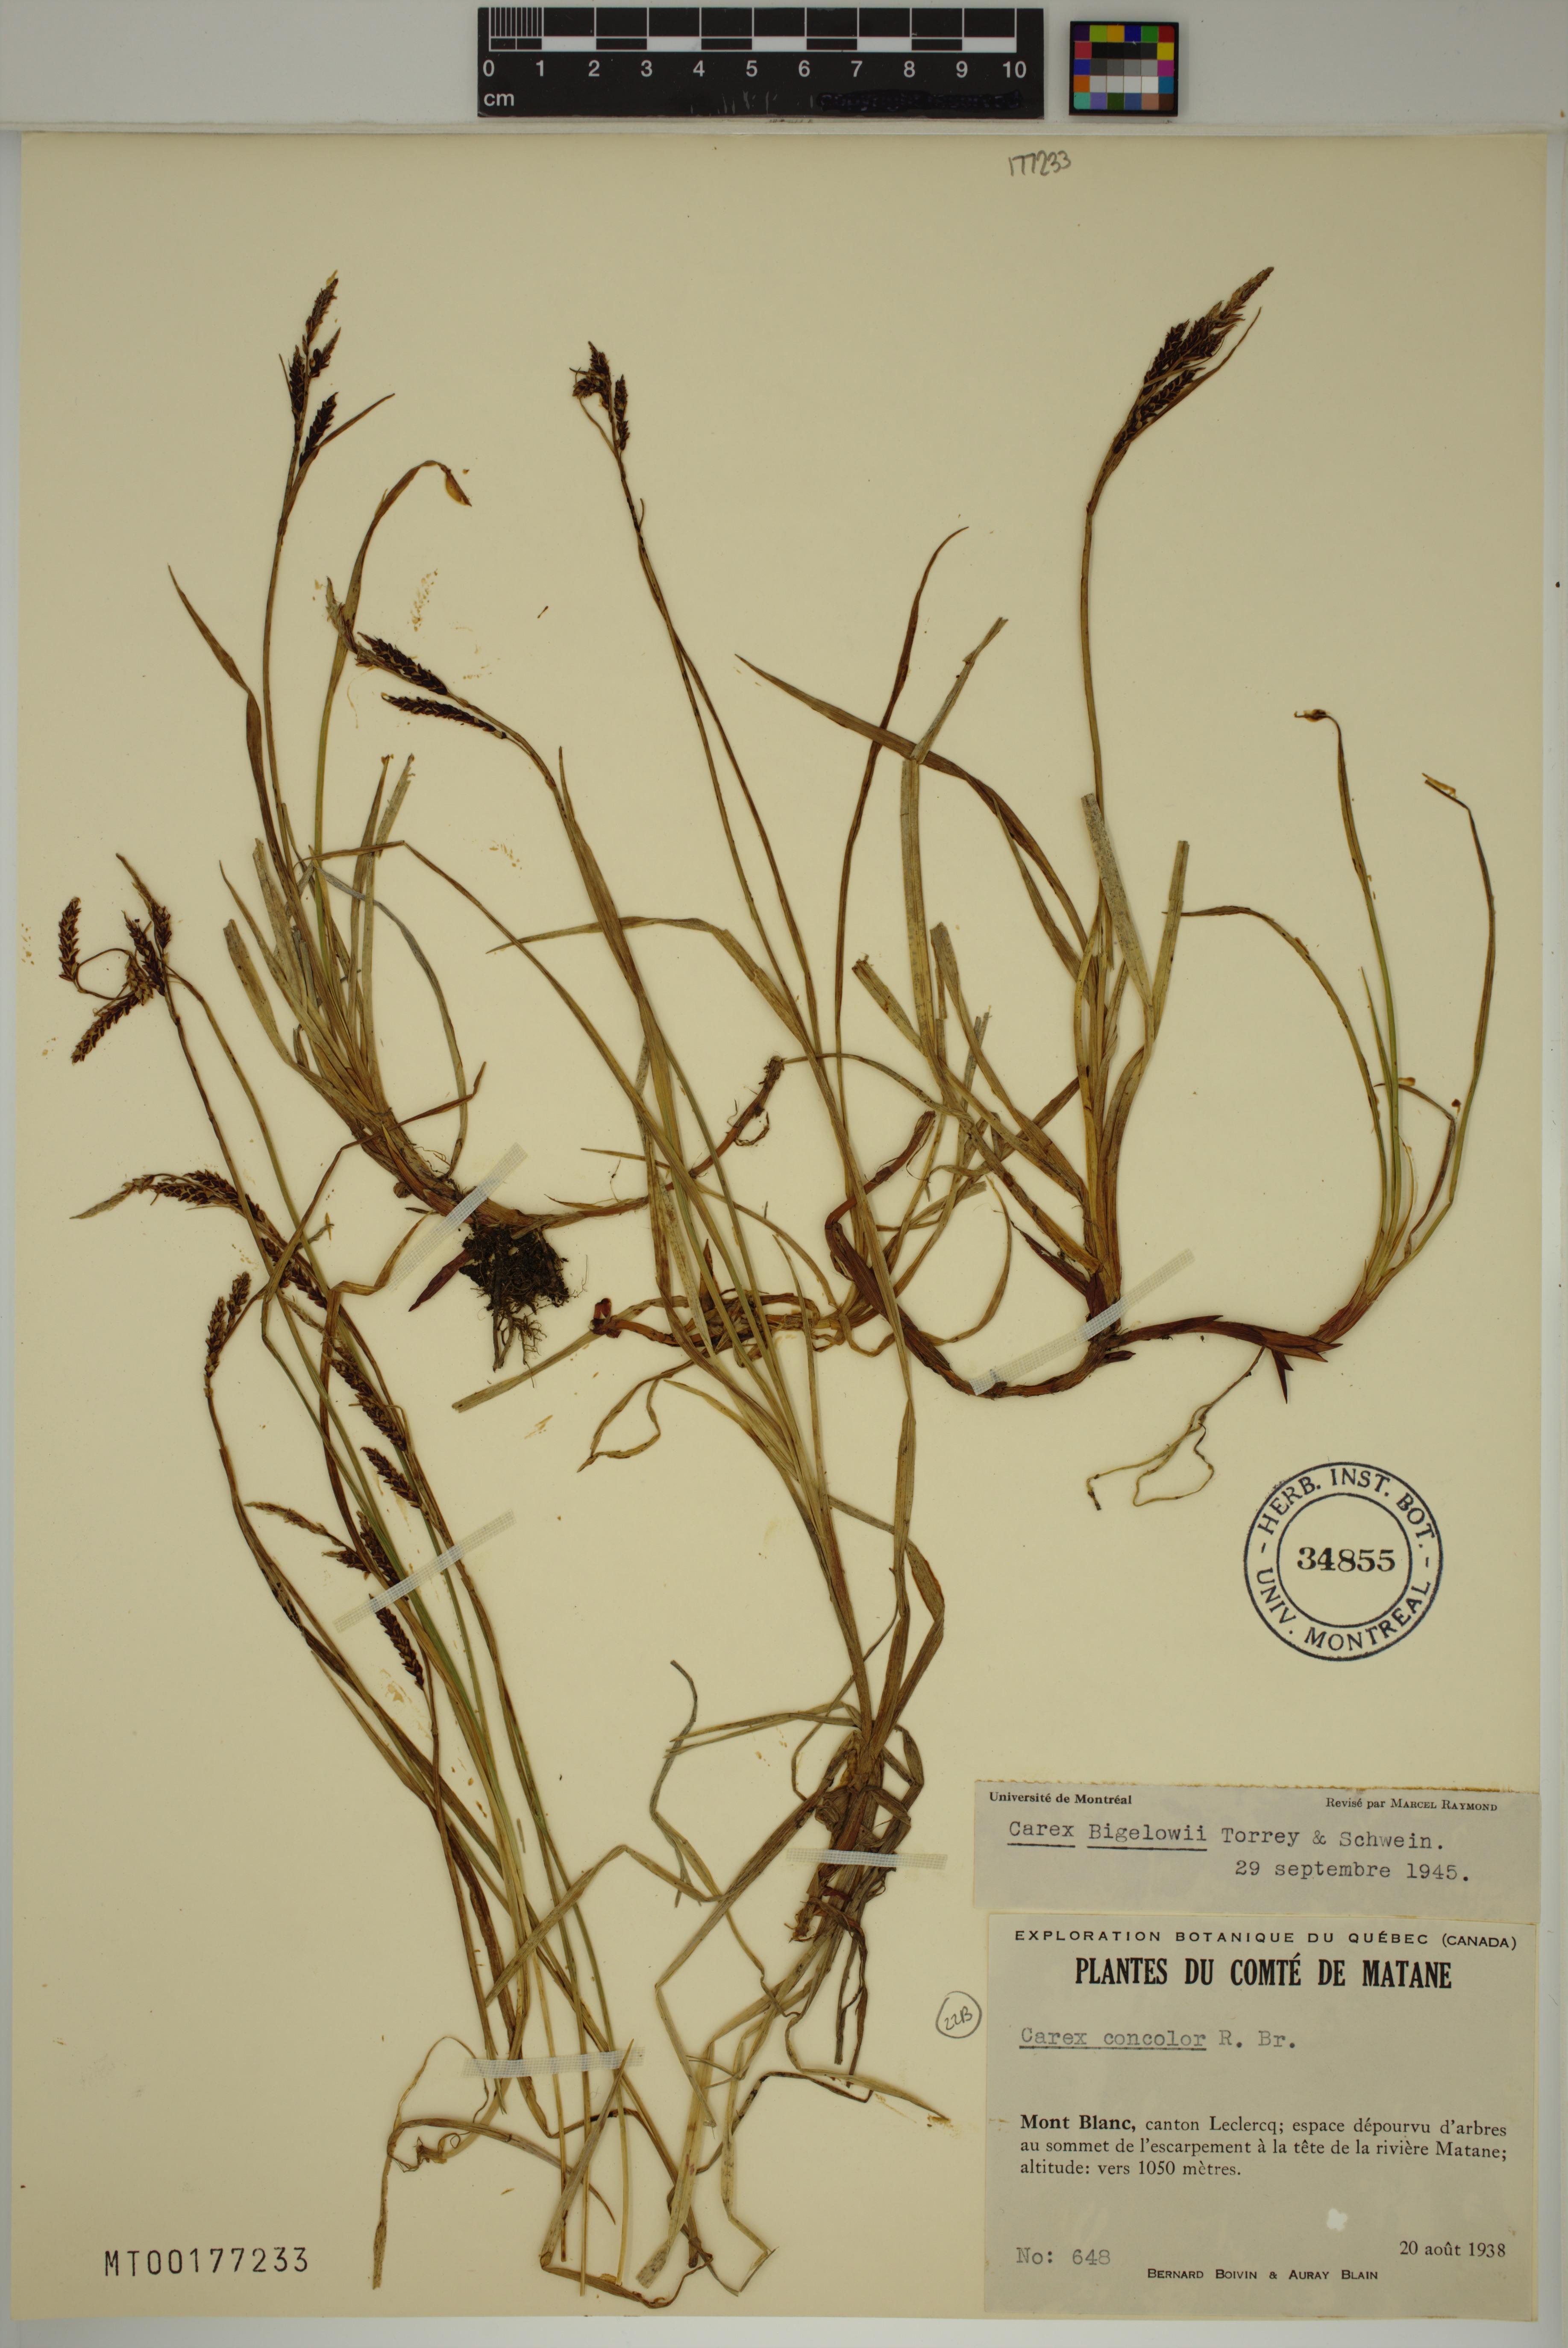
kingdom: Plantae
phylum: Tracheophyta
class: Liliopsida
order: Poales
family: Cyperaceae
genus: Carex
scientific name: Carex bigelowii
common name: Stiff sedge
